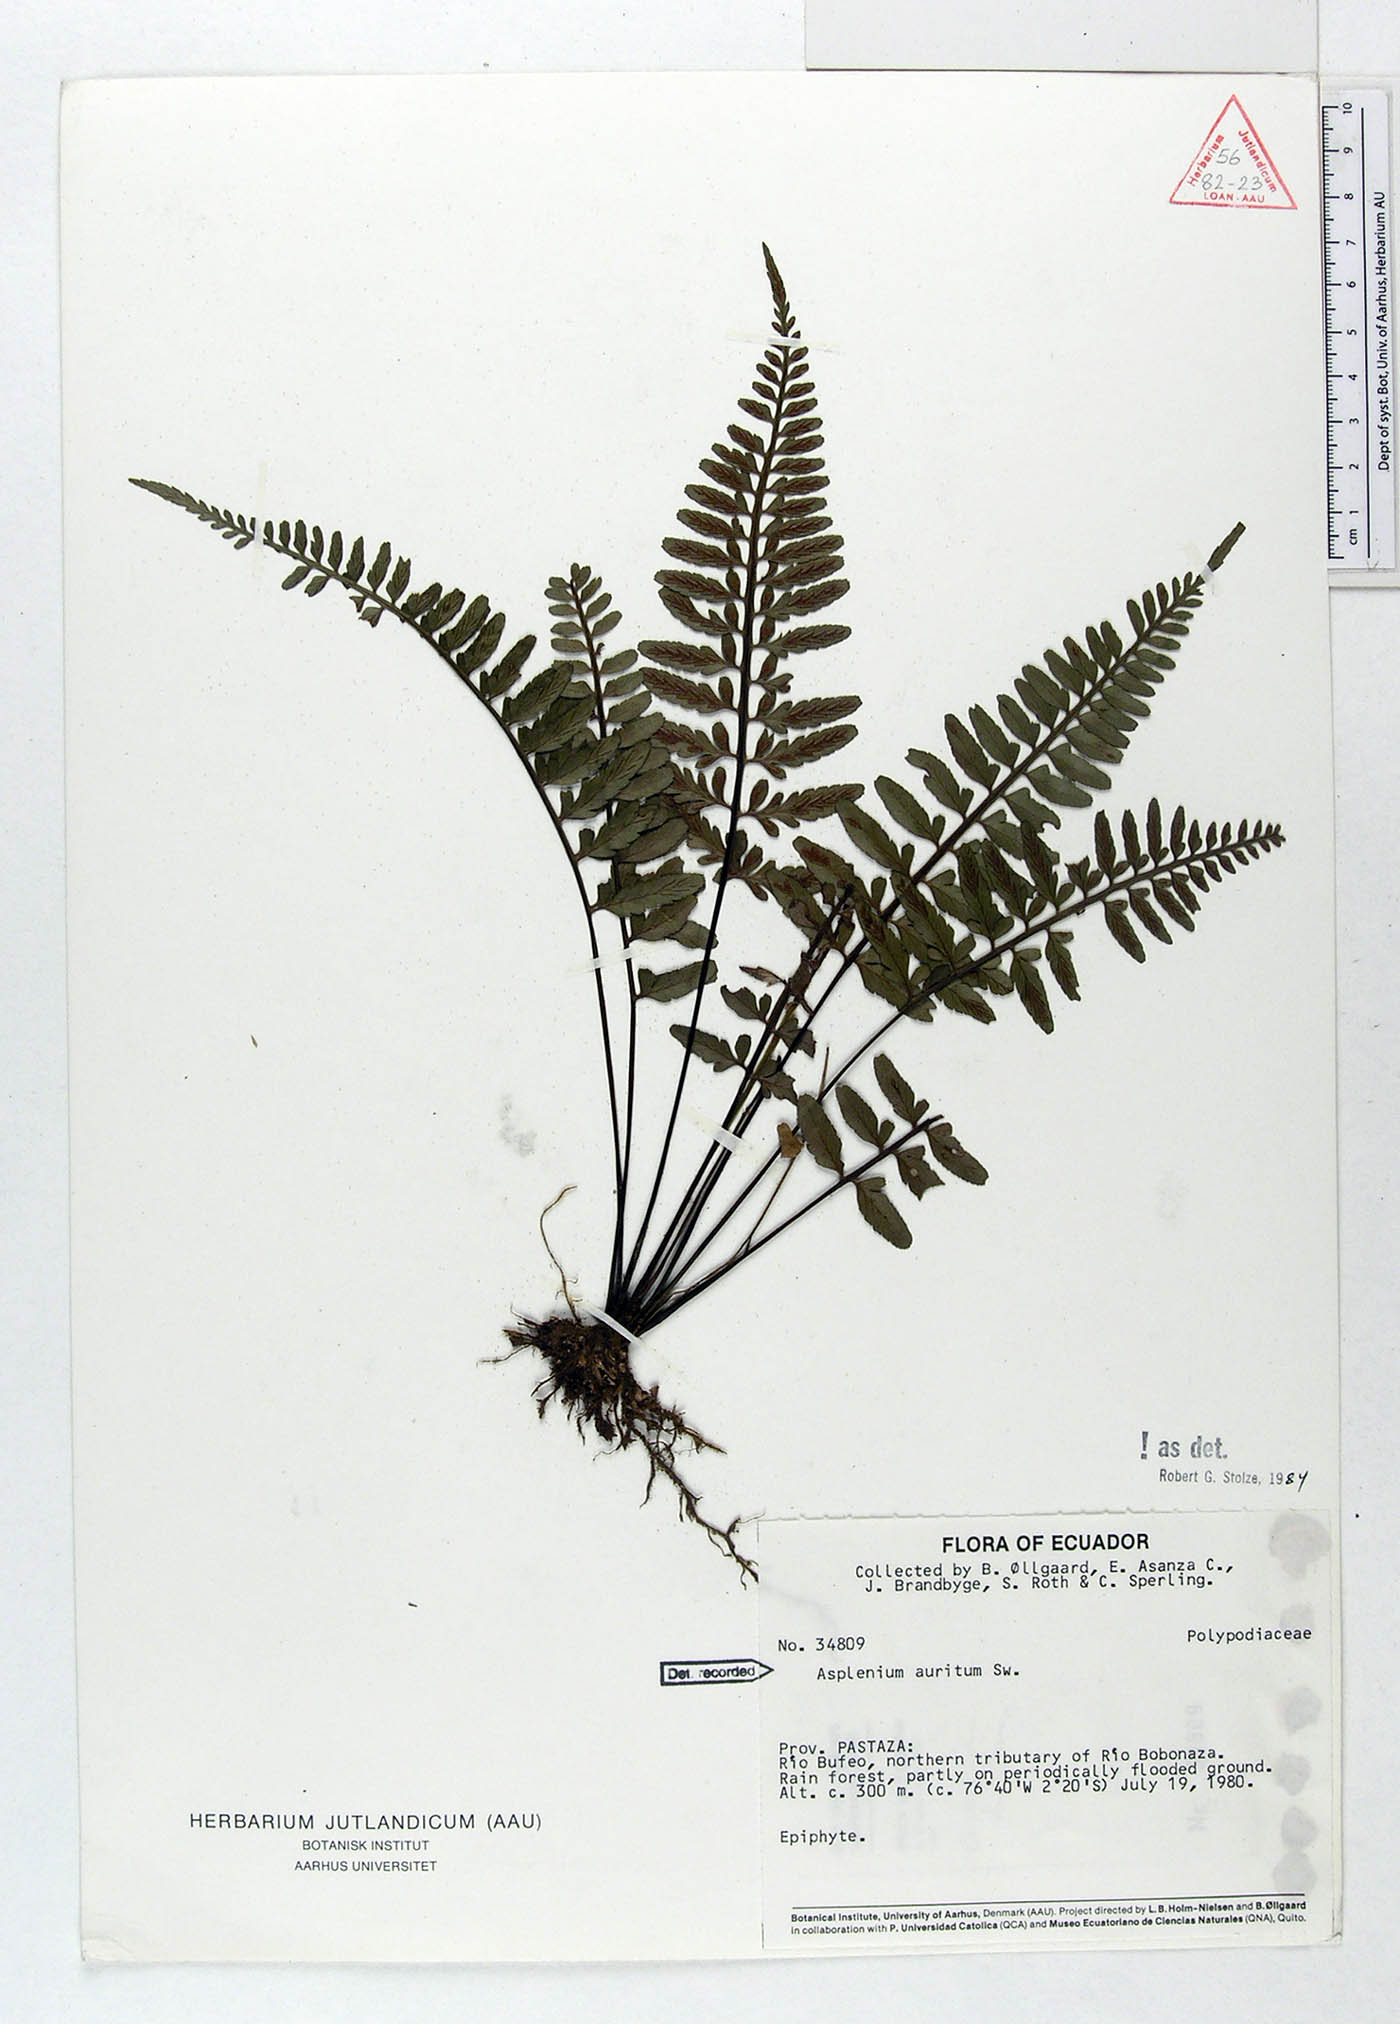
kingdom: Plantae
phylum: Tracheophyta
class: Polypodiopsida
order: Polypodiales
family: Aspleniaceae
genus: Asplenium
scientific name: Asplenium auritum
